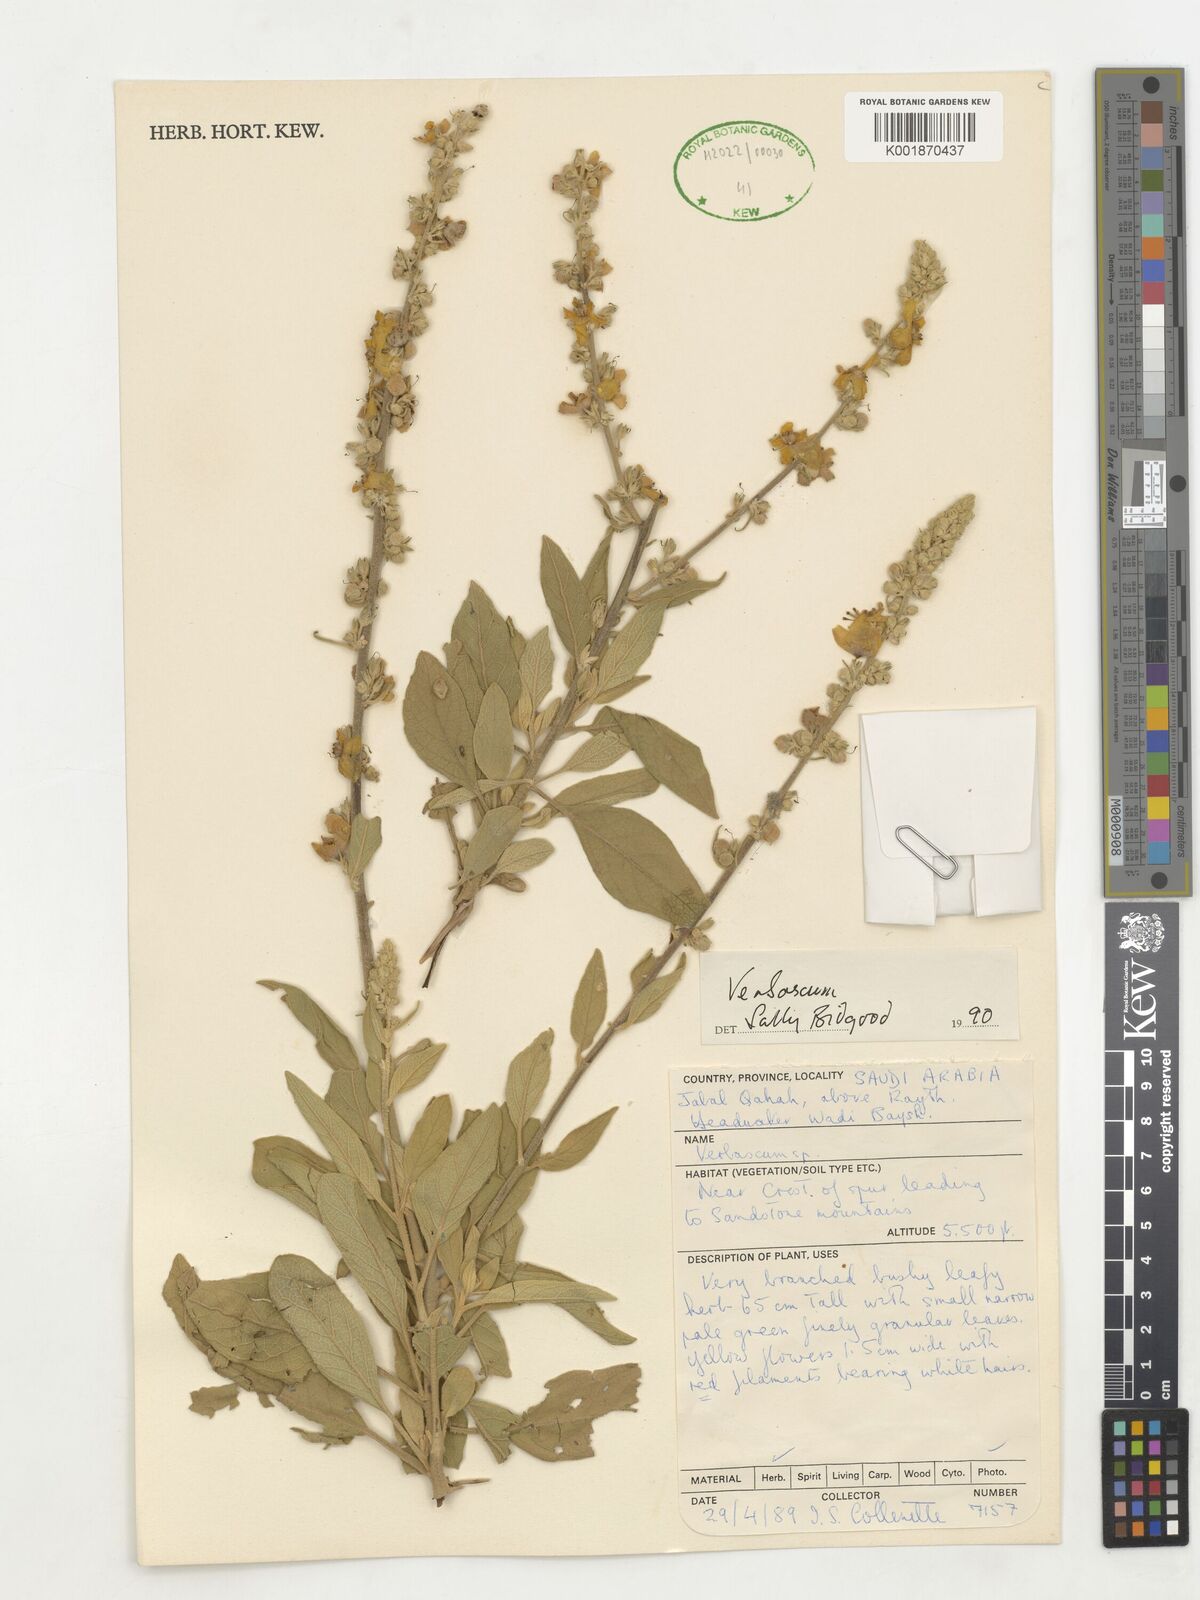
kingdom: Plantae
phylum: Tracheophyta
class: Magnoliopsida
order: Lamiales
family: Scrophulariaceae
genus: Verbascum
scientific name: Verbascum
